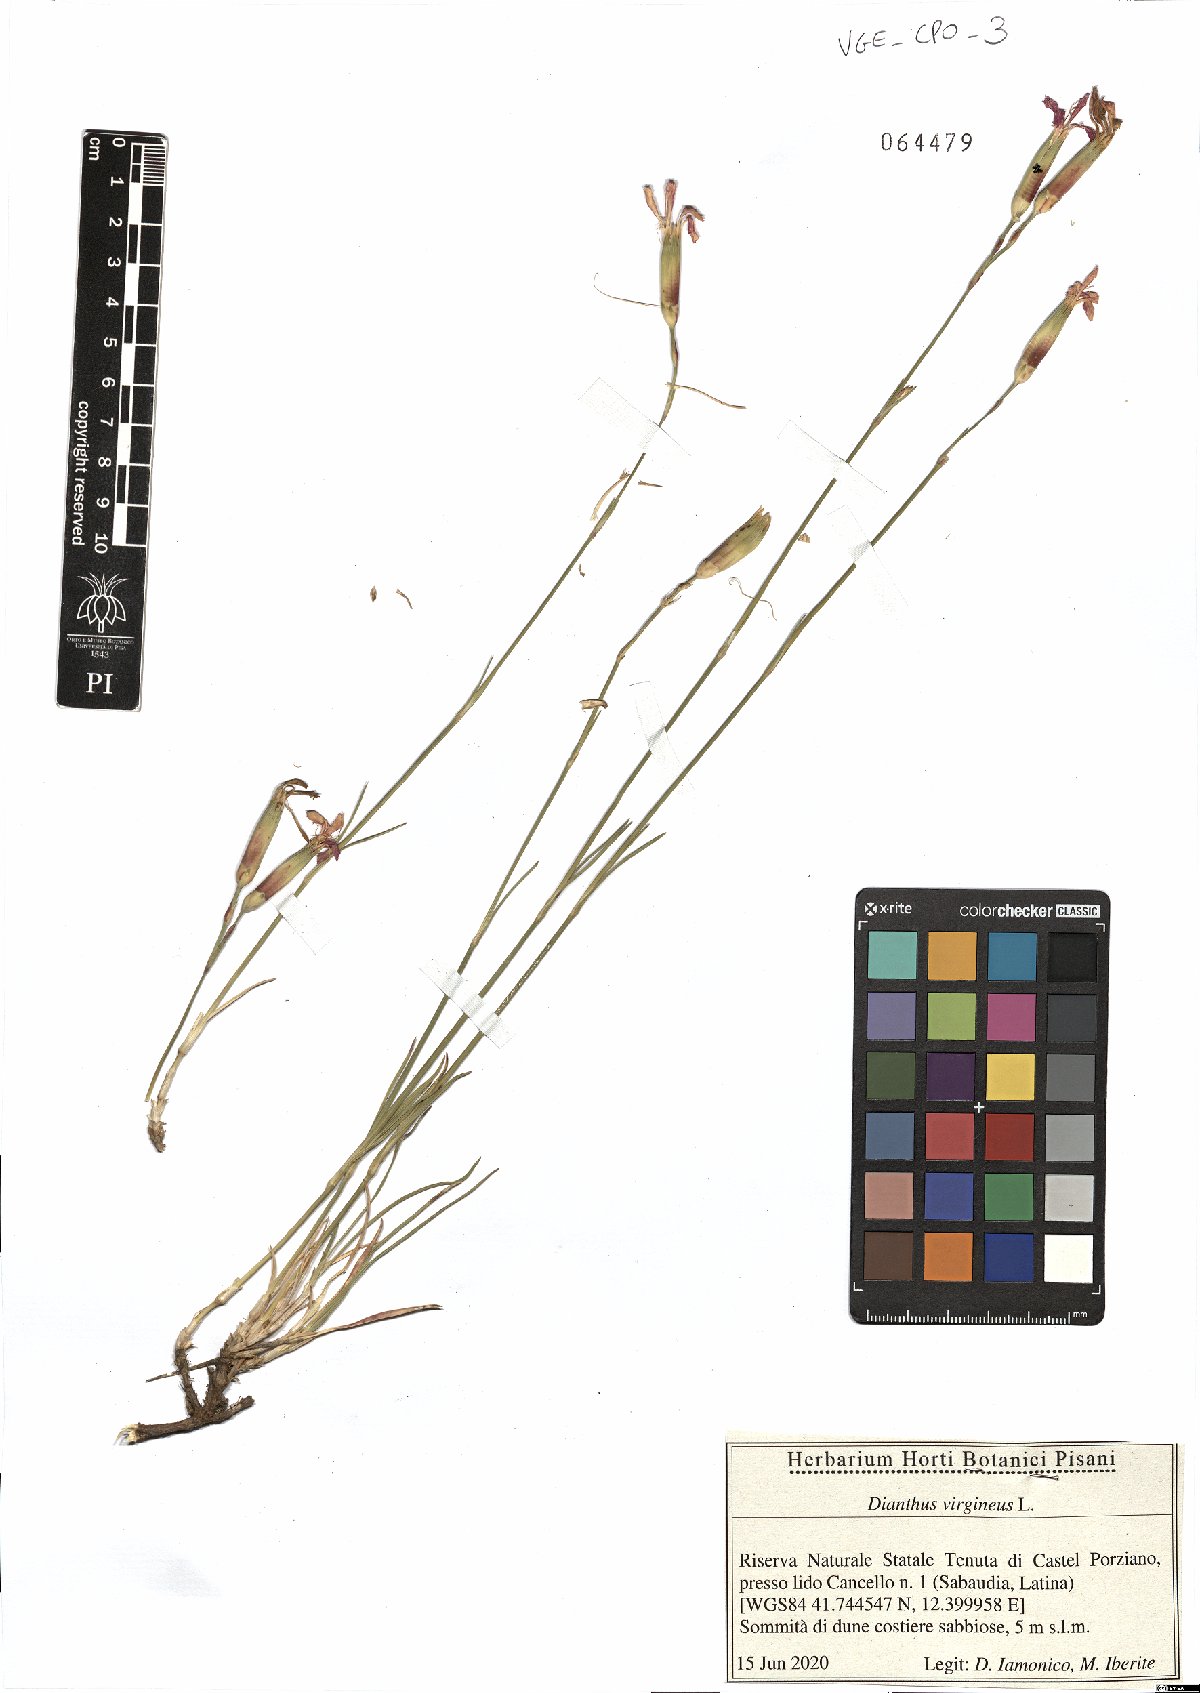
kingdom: Plantae
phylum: Tracheophyta
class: Magnoliopsida
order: Caryophyllales
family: Caryophyllaceae
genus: Dianthus
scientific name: Dianthus virgineus
